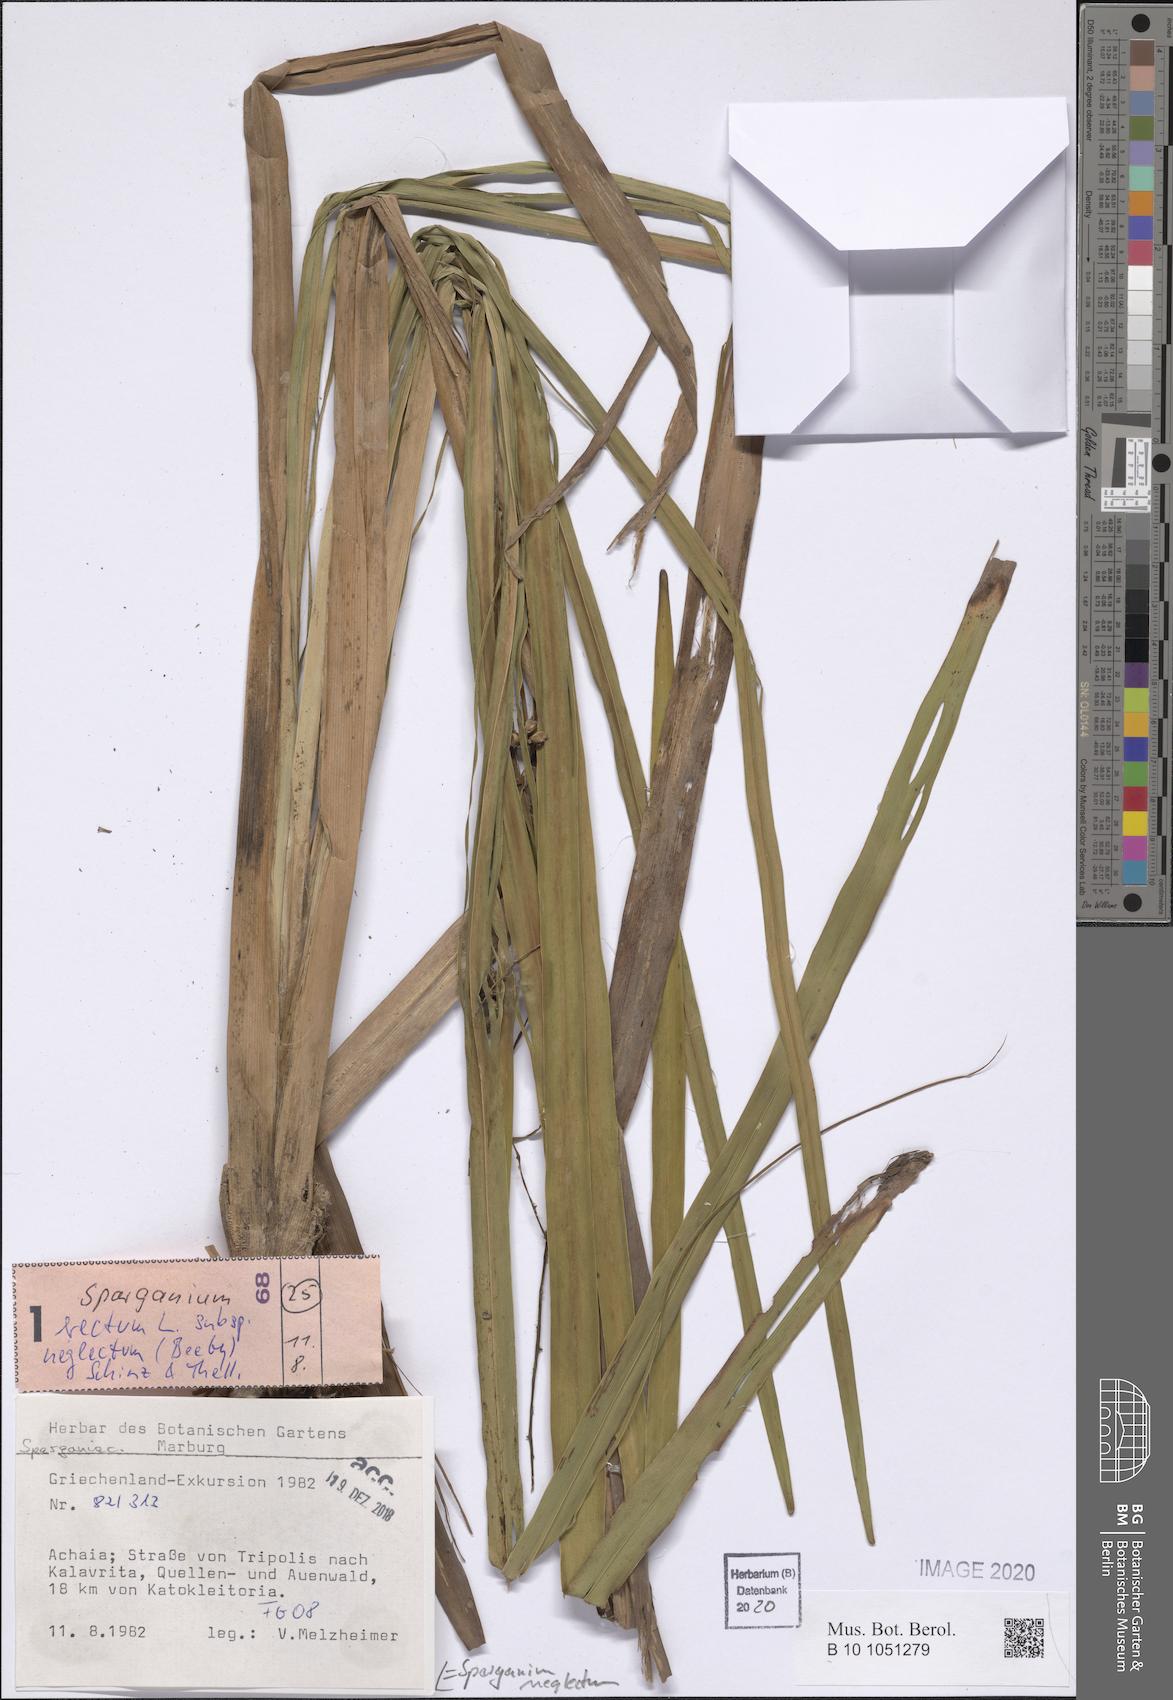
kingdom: Plantae
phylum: Tracheophyta
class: Liliopsida
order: Poales
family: Typhaceae
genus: Sparganium
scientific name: Sparganium erectum
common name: Branched bur-reed
